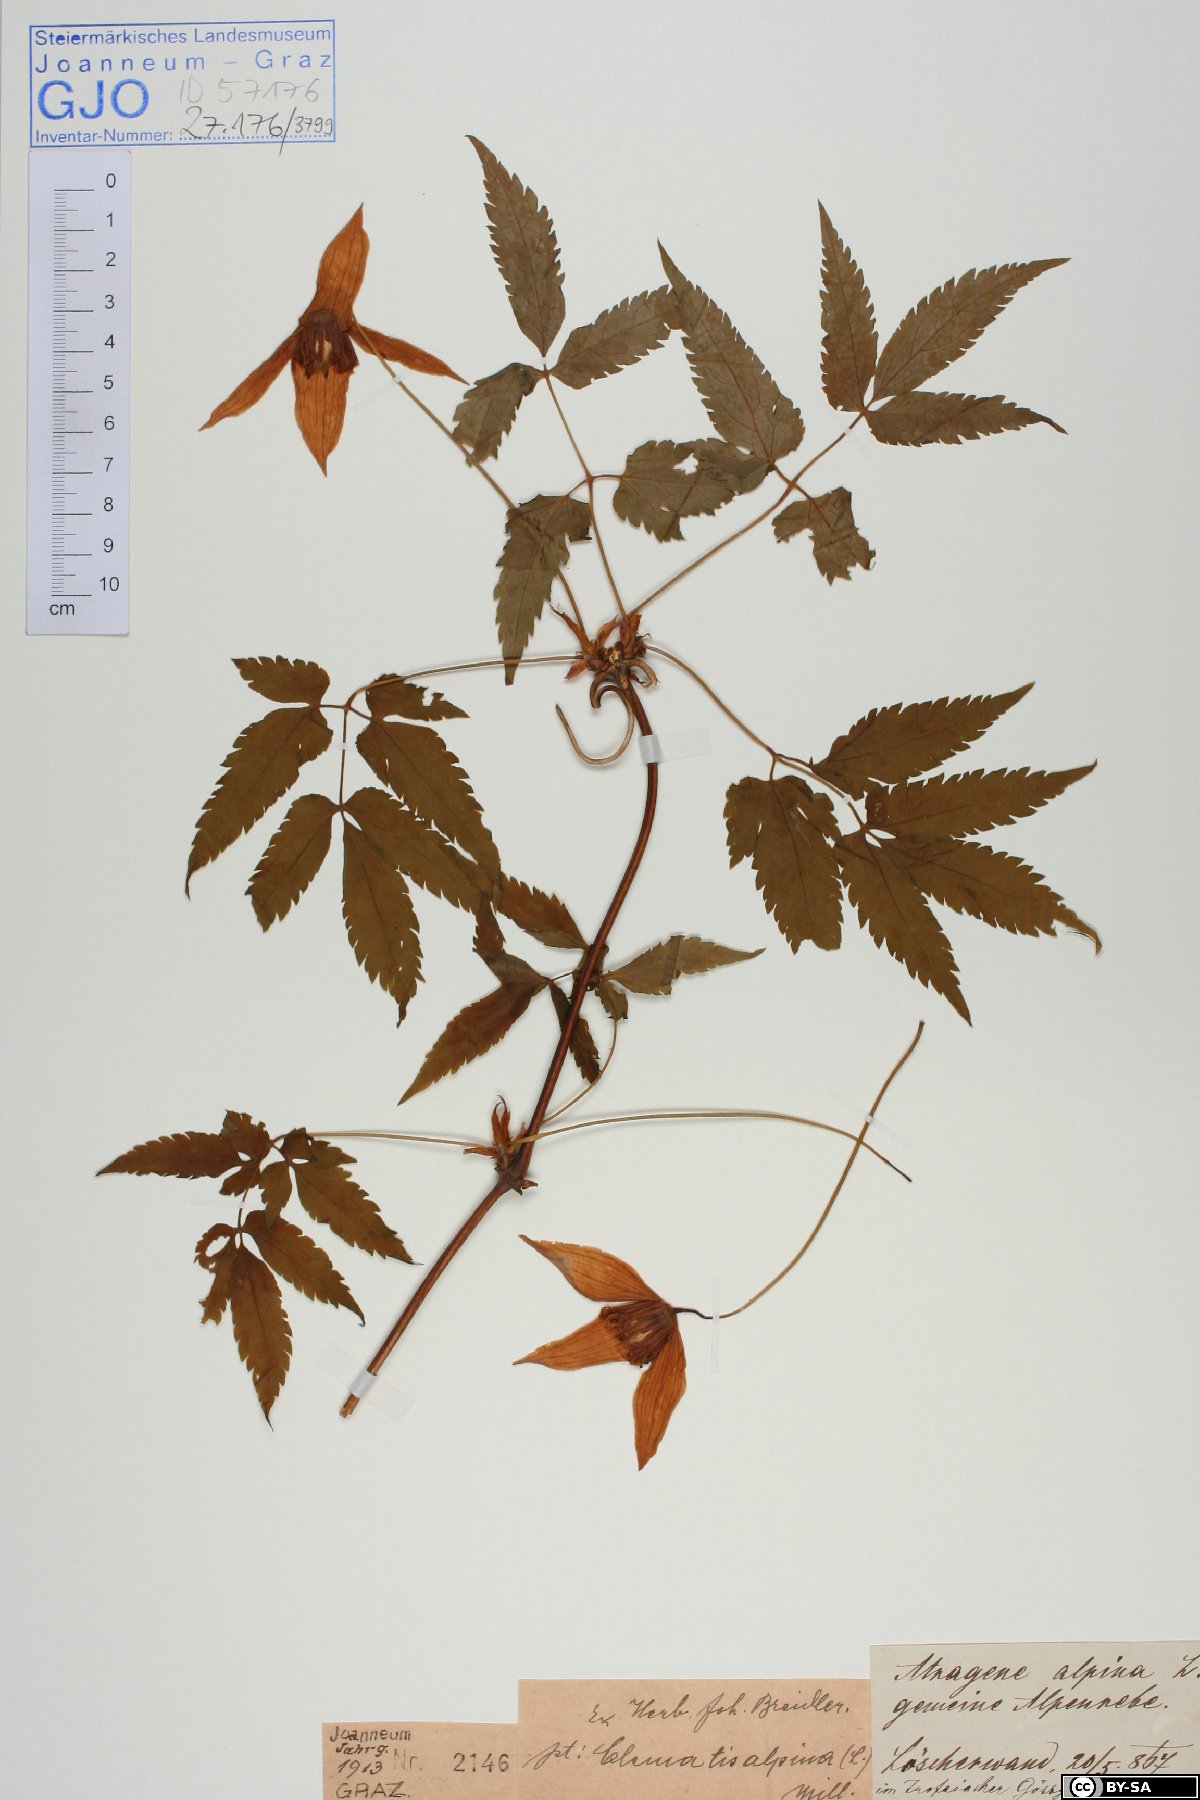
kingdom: Plantae
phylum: Tracheophyta
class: Magnoliopsida
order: Ranunculales
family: Ranunculaceae
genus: Clematis
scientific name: Clematis alpina
